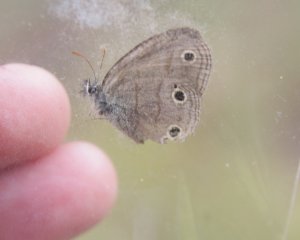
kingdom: Animalia
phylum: Arthropoda
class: Insecta
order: Lepidoptera
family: Nymphalidae
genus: Euptychia
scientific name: Euptychia cymela
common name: Little Wood Satyr
